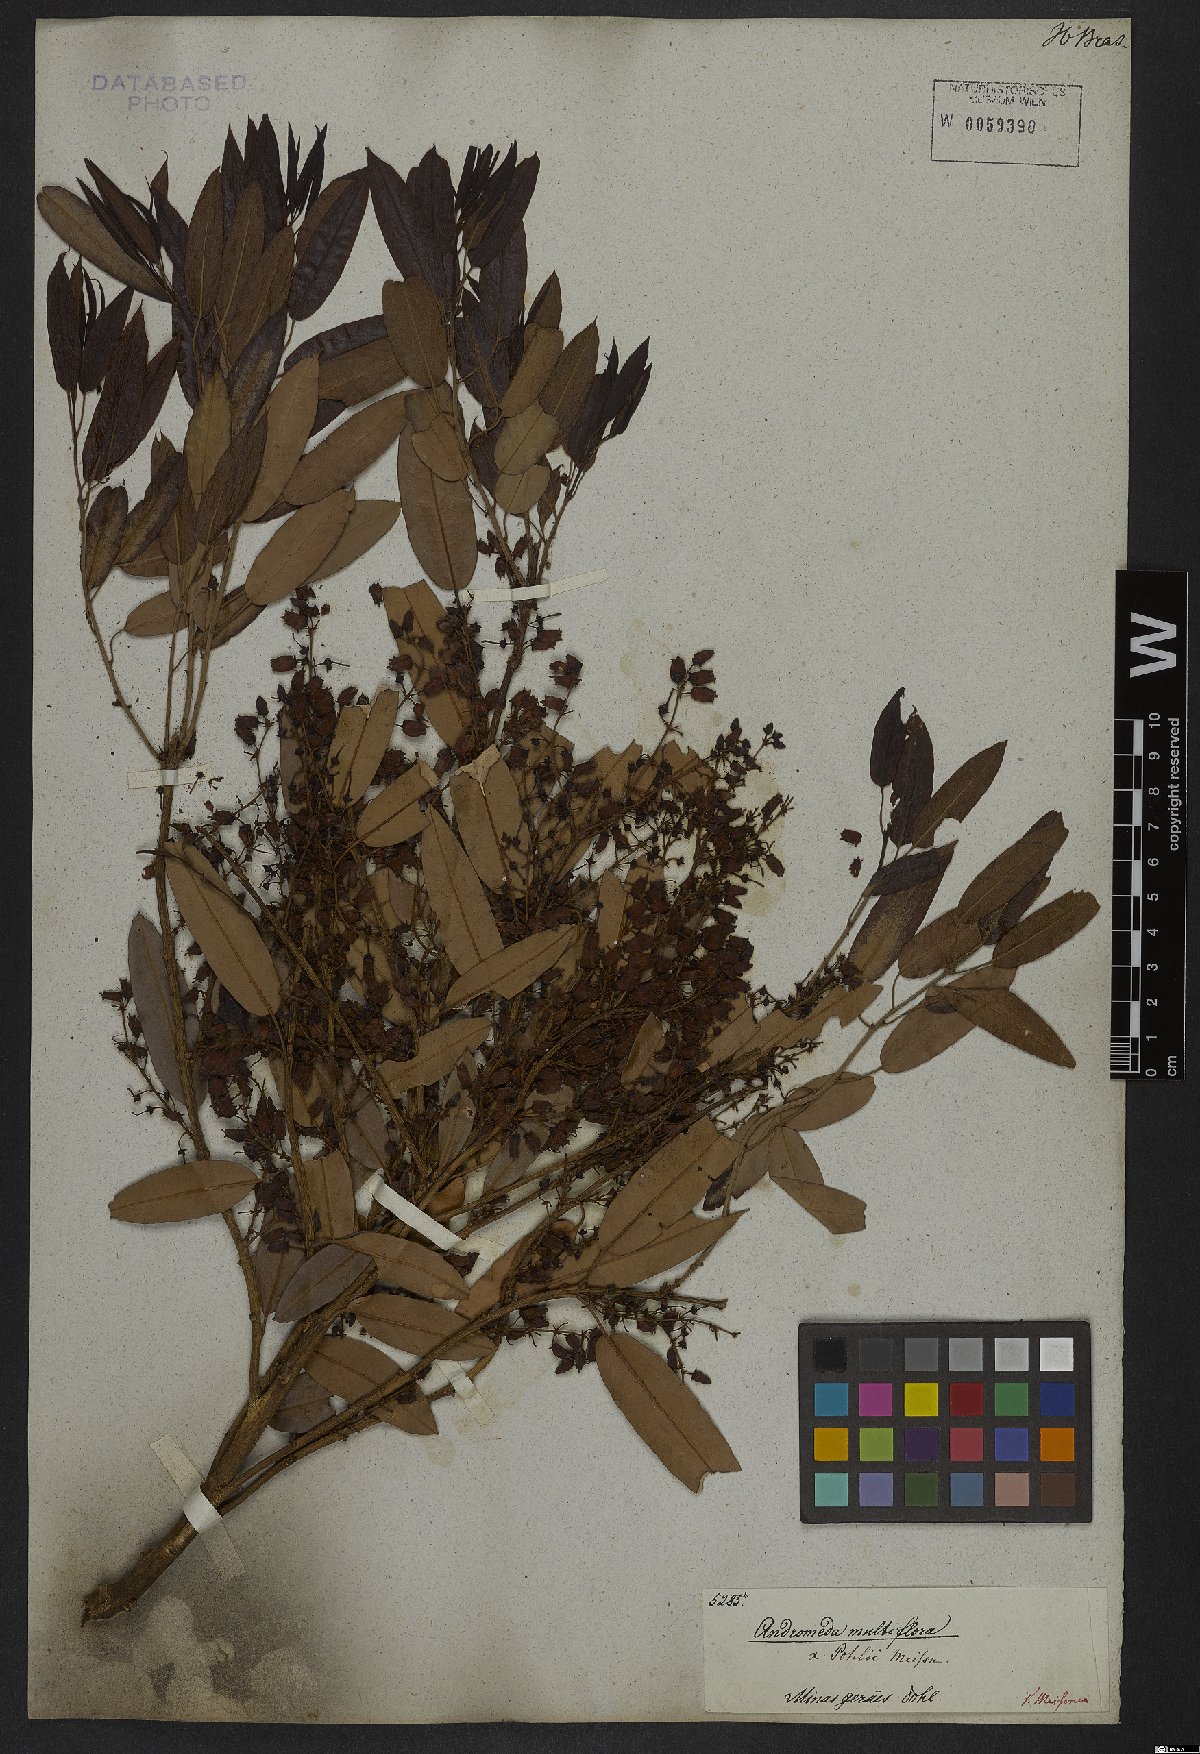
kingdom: Plantae
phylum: Tracheophyta
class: Magnoliopsida
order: Ericales
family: Ericaceae
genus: Agarista
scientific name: Agarista eucalyptoides
